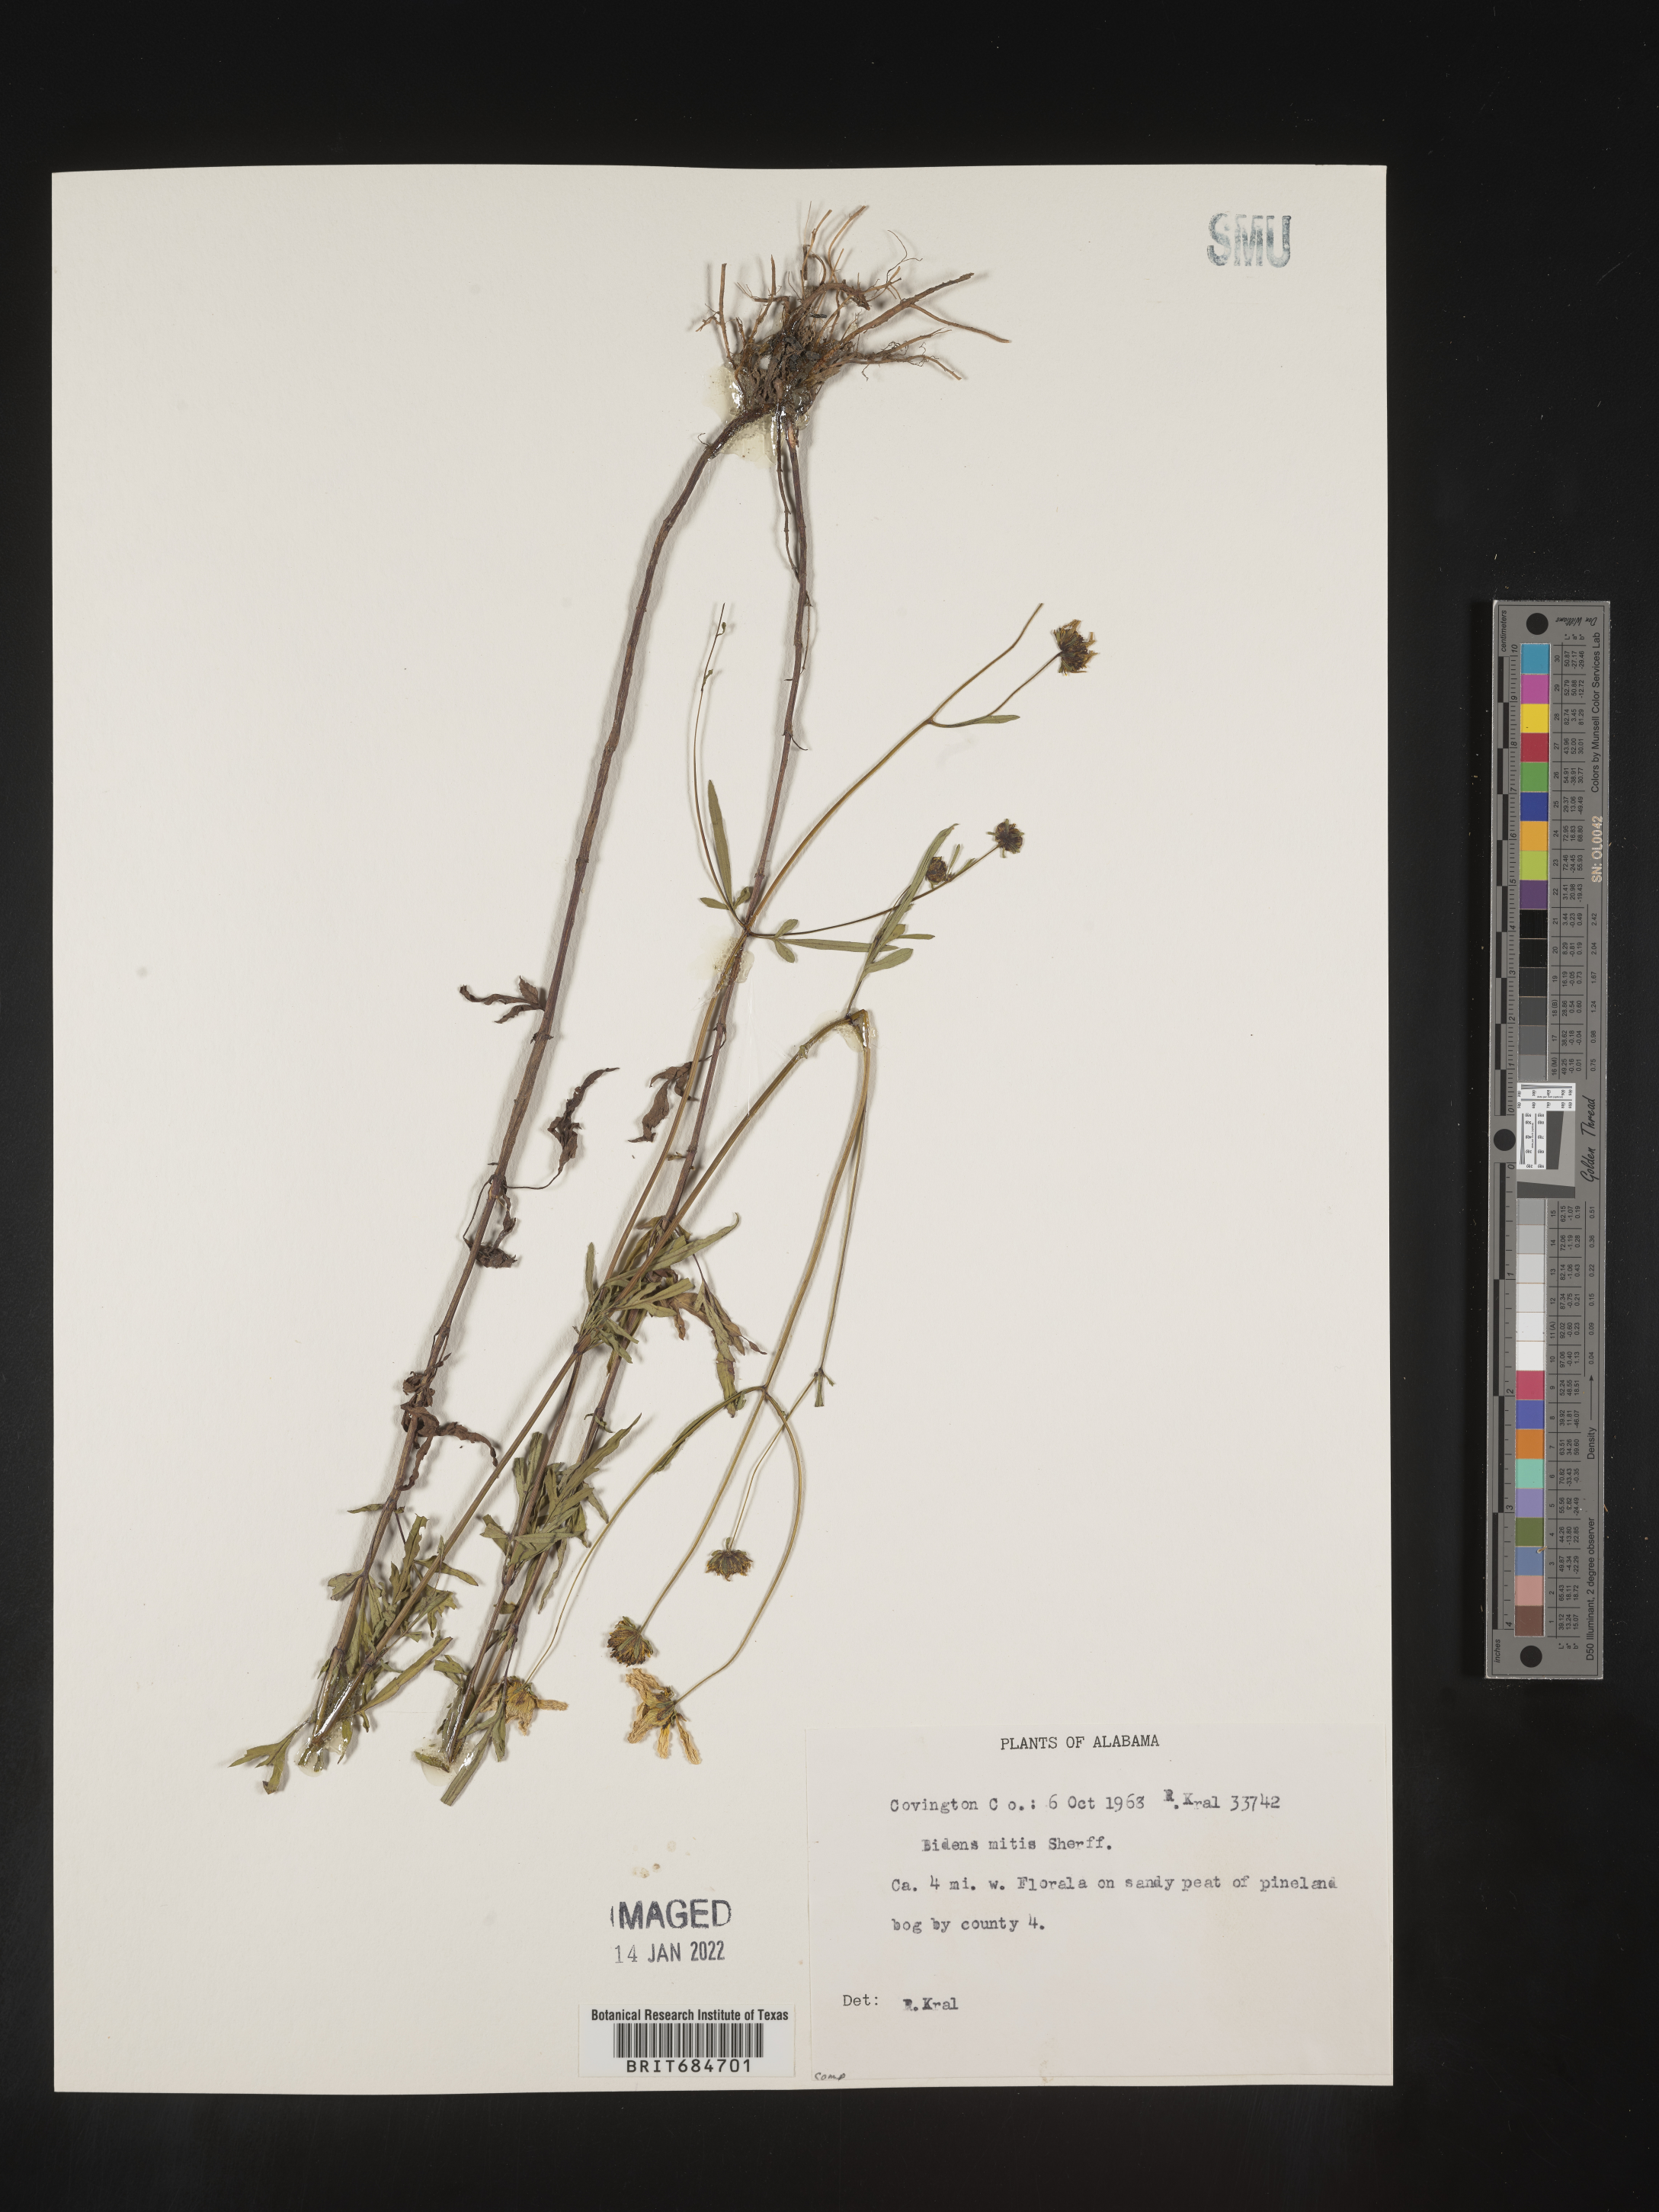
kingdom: Plantae
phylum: Tracheophyta
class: Magnoliopsida
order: Asterales
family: Asteraceae
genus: Bidens
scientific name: Bidens mitis
